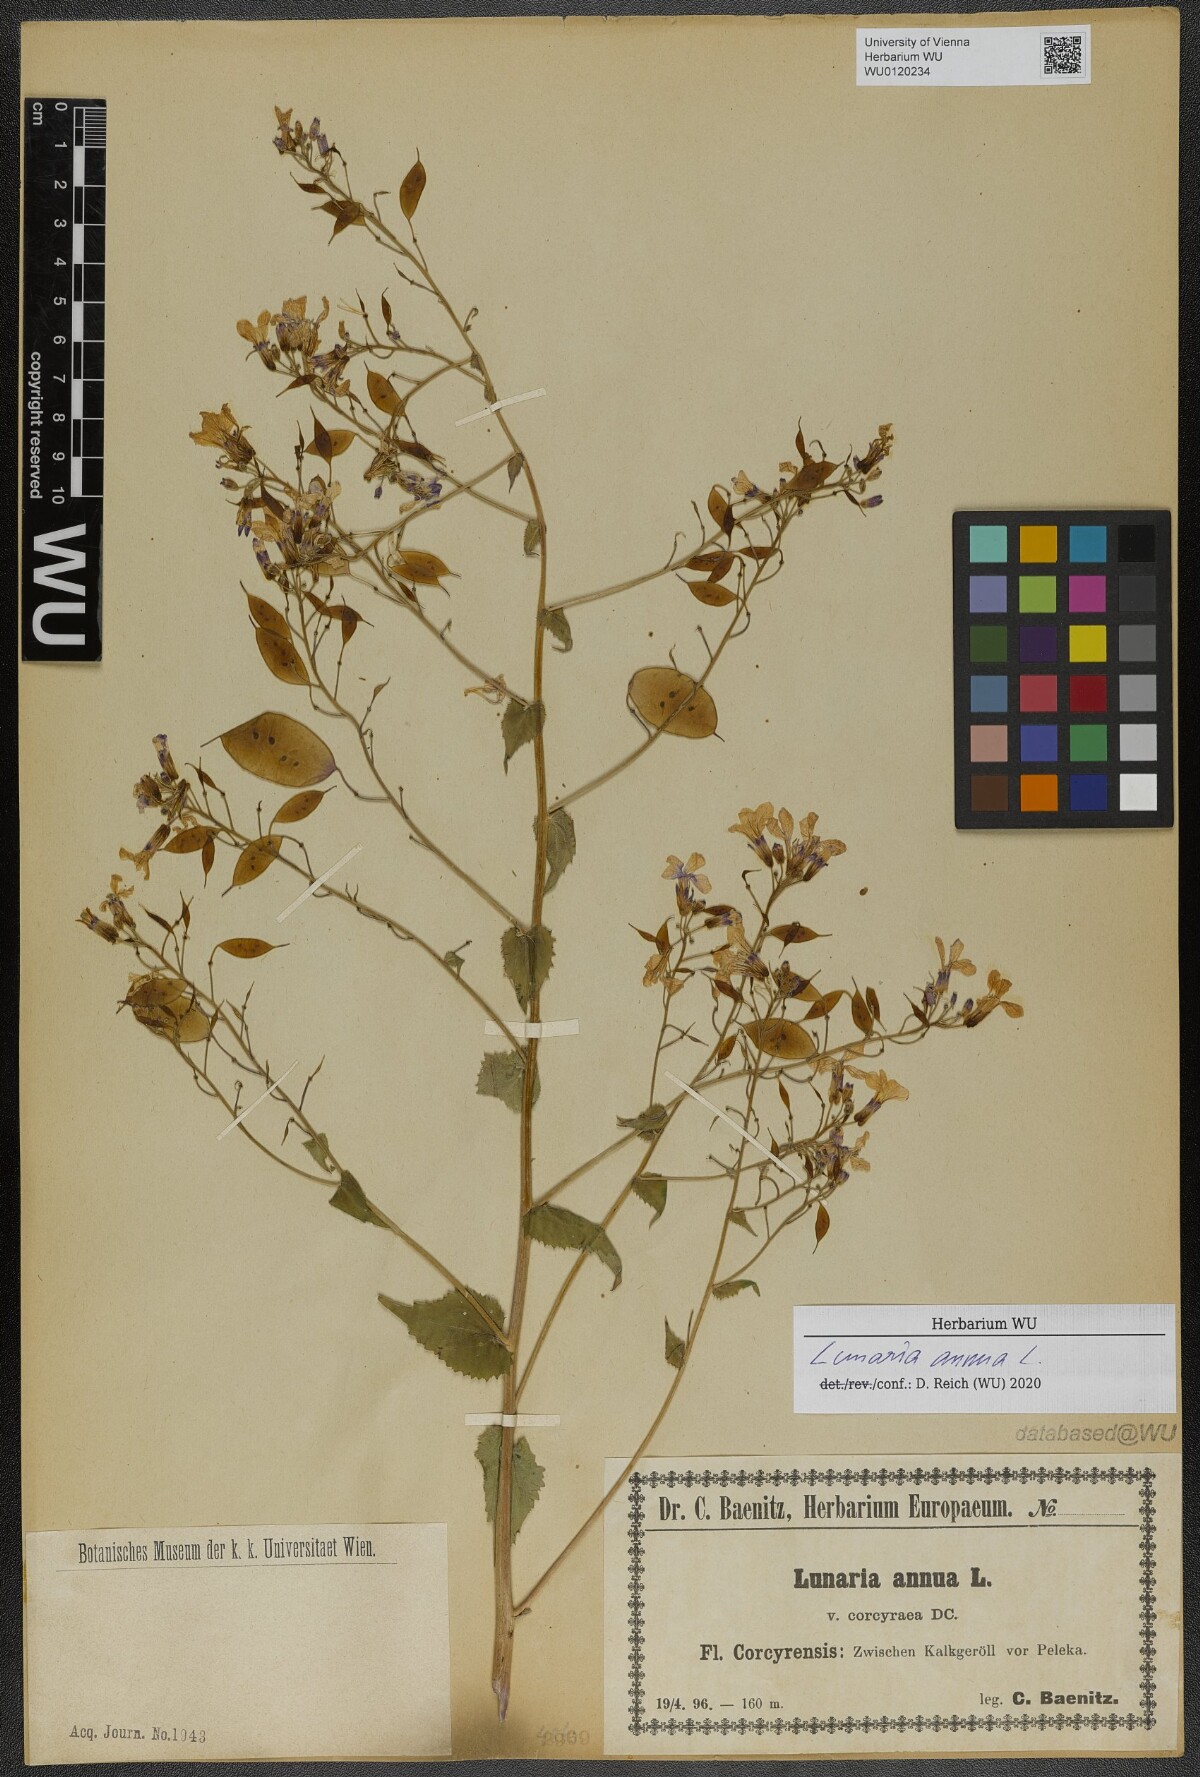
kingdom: Plantae
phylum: Tracheophyta
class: Magnoliopsida
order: Brassicales
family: Brassicaceae
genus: Lunaria
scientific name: Lunaria annua
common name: Honesty
